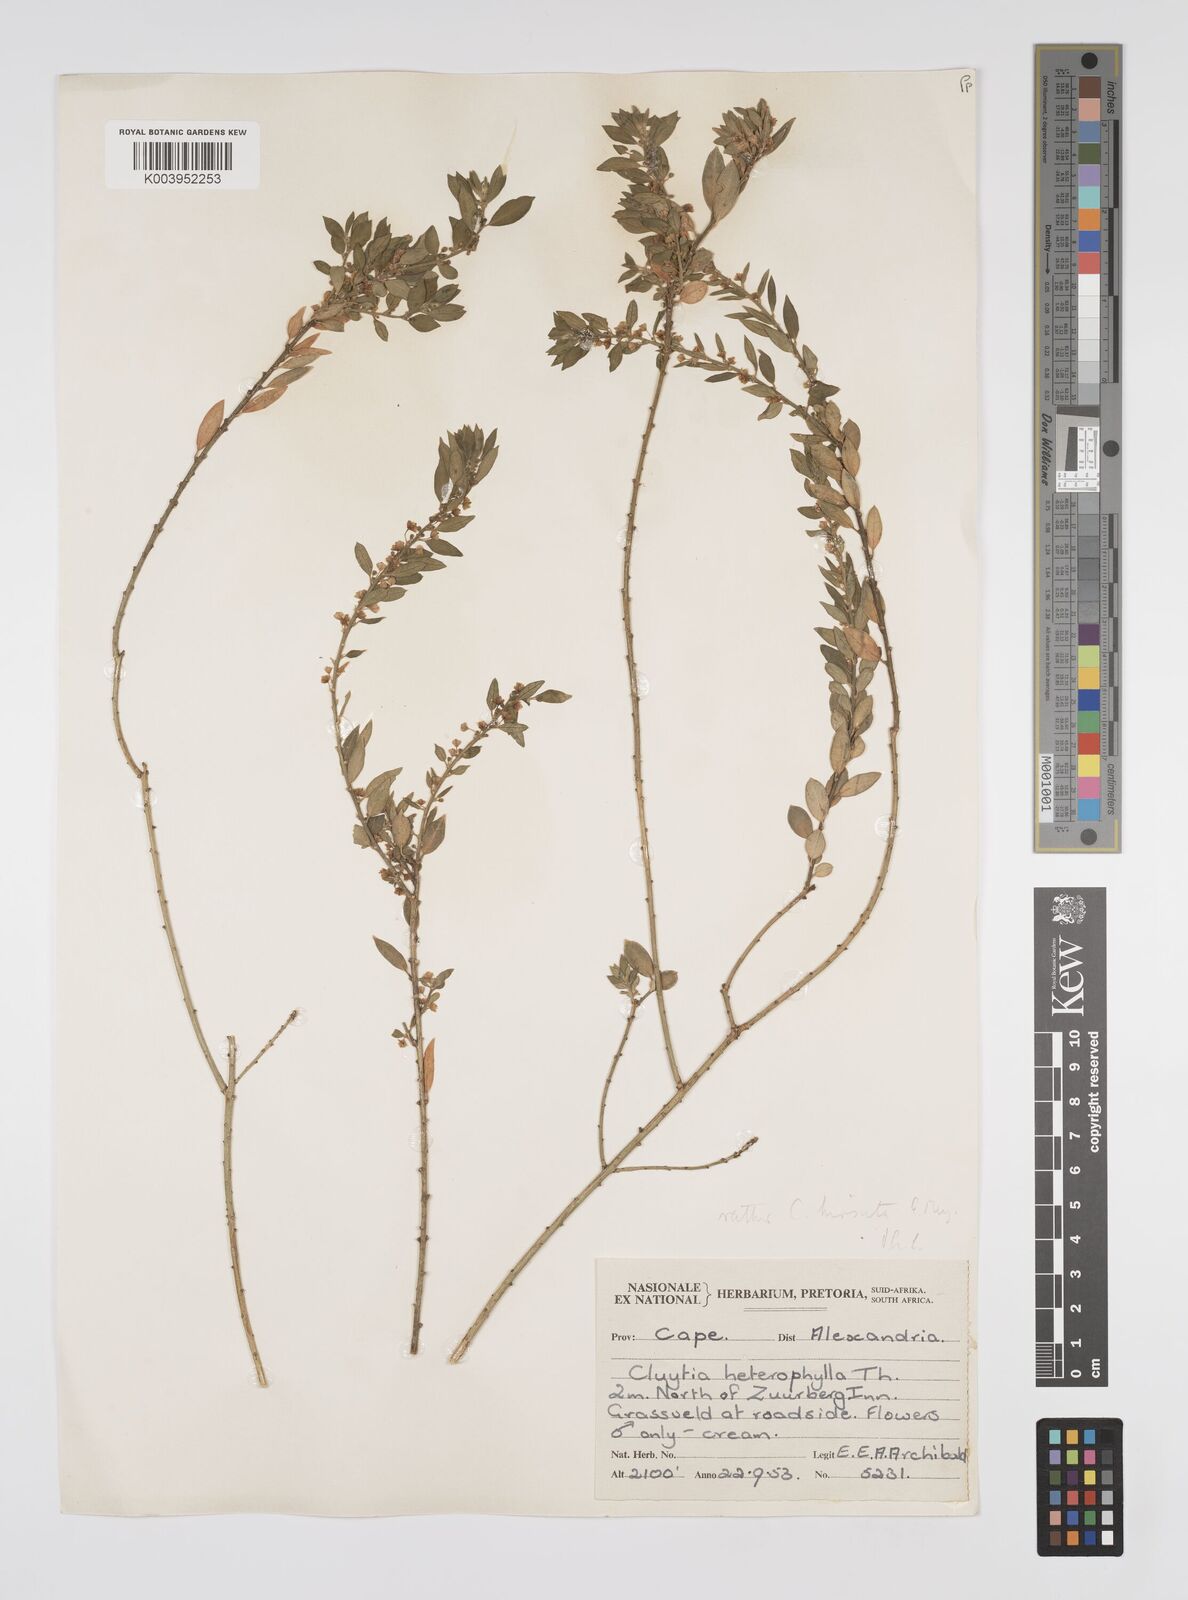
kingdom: Plantae
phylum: Tracheophyta
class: Magnoliopsida
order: Malpighiales
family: Peraceae
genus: Clutia
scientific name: Clutia affinis
